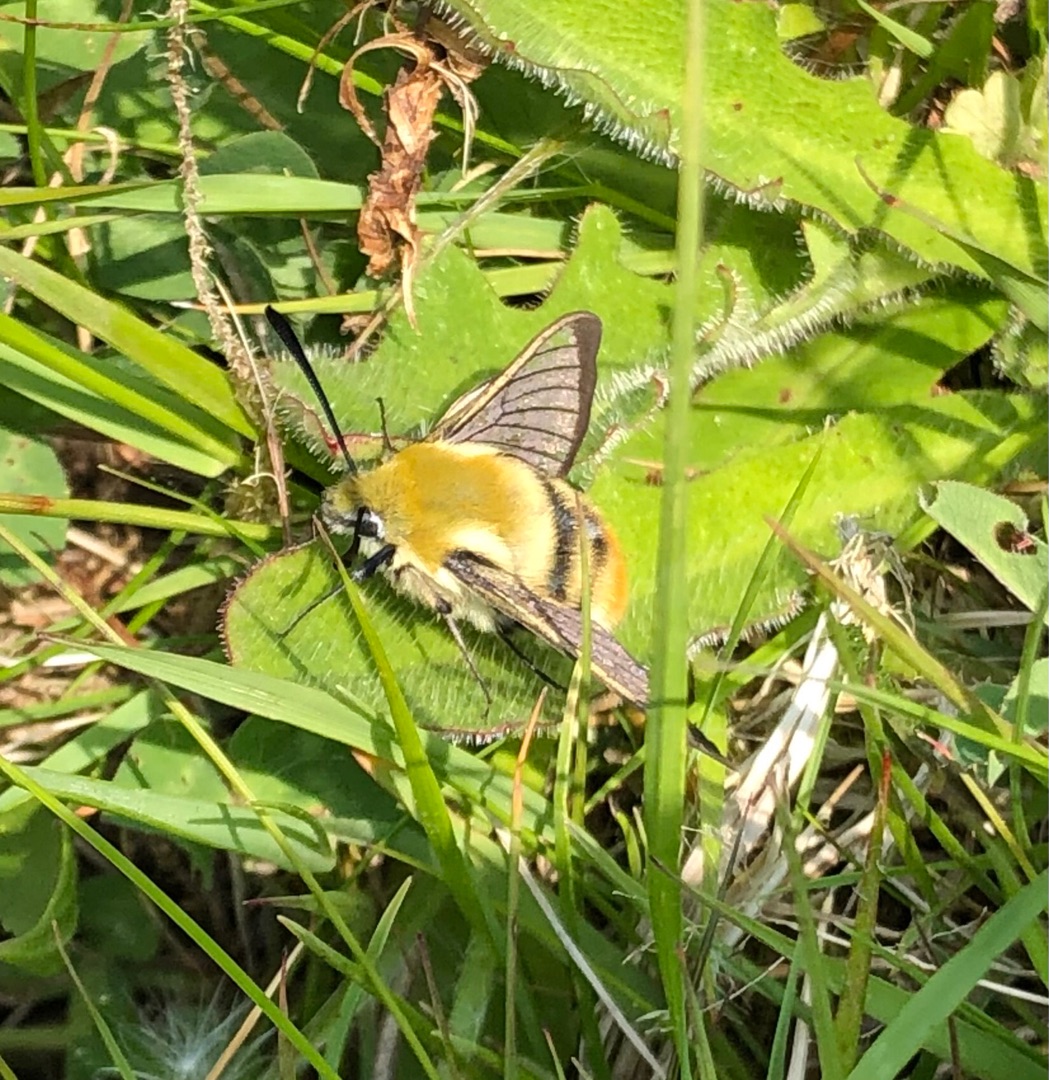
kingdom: Animalia
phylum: Arthropoda
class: Insecta
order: Lepidoptera
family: Sphingidae
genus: Hemaris
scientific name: Hemaris tityus
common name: Smalrandet humlebisværmer
